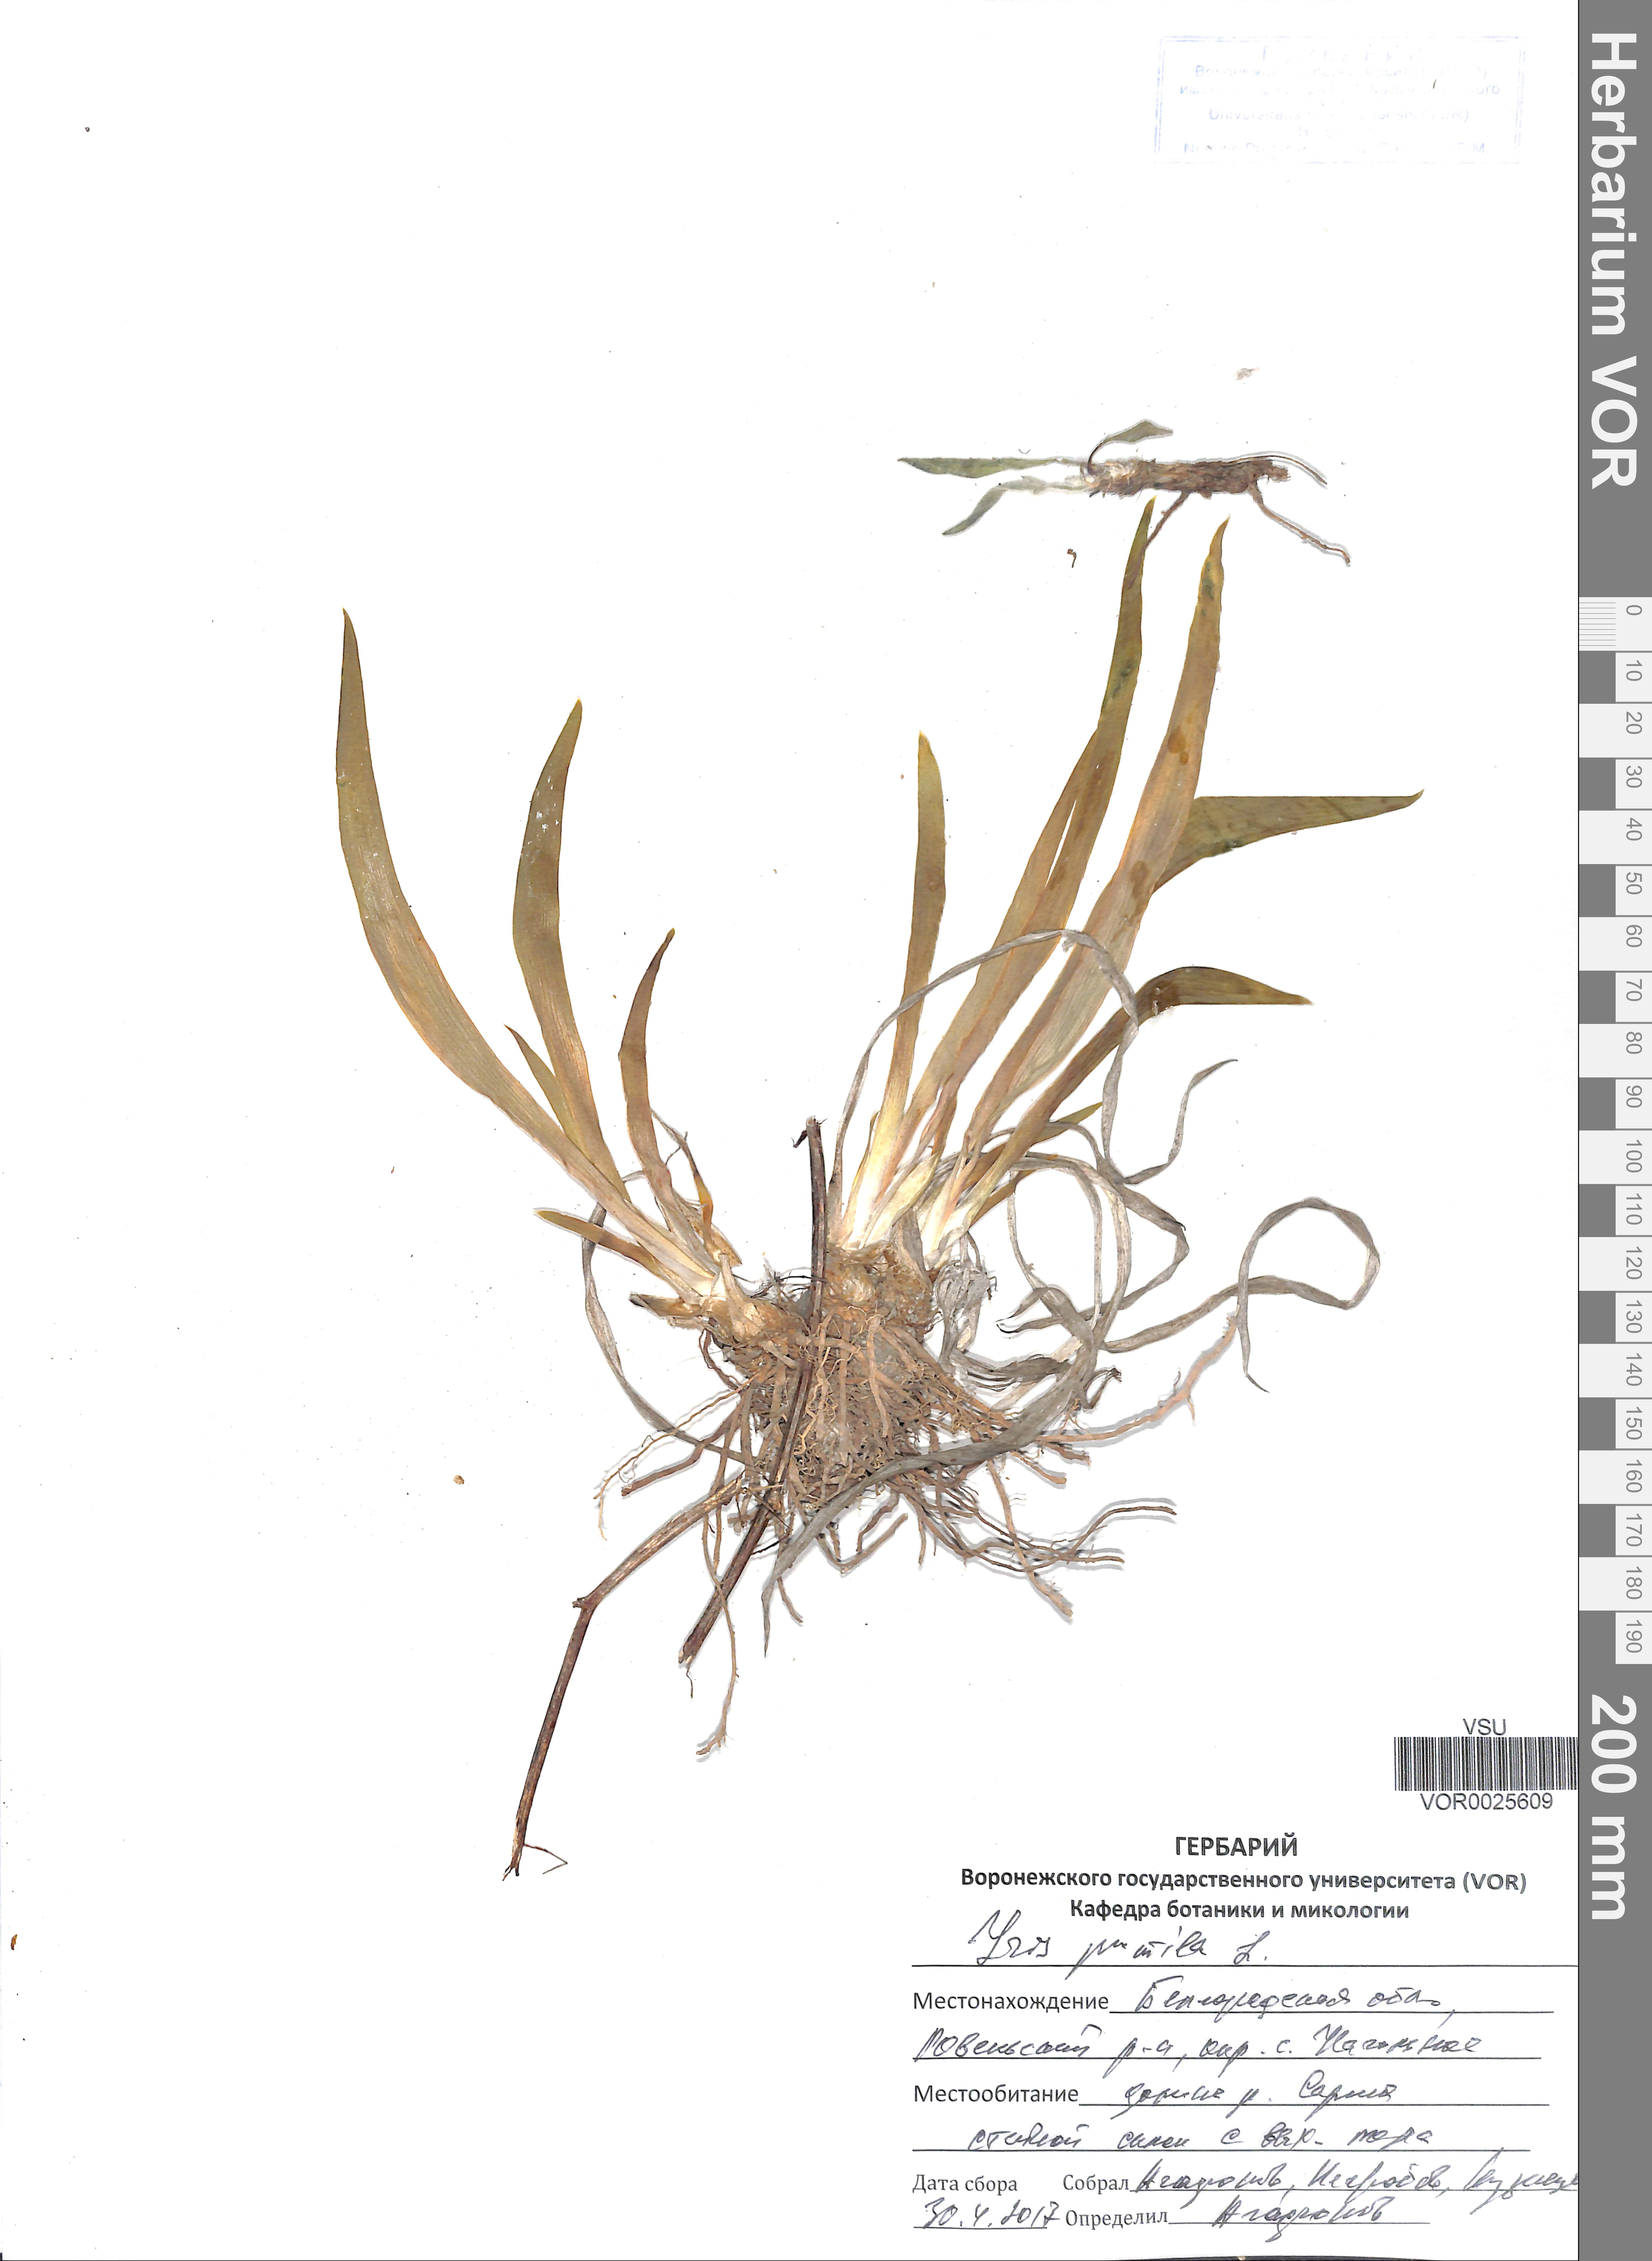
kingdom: Plantae
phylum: Tracheophyta
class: Liliopsida
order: Asparagales
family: Iridaceae
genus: Iris
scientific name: Iris pumila
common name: Dwarf iris
